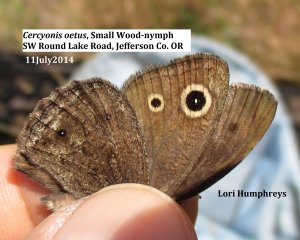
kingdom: Animalia
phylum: Arthropoda
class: Insecta
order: Lepidoptera
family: Nymphalidae
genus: Cercyonis
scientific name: Cercyonis oetus
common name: Small Wood-Nymph
